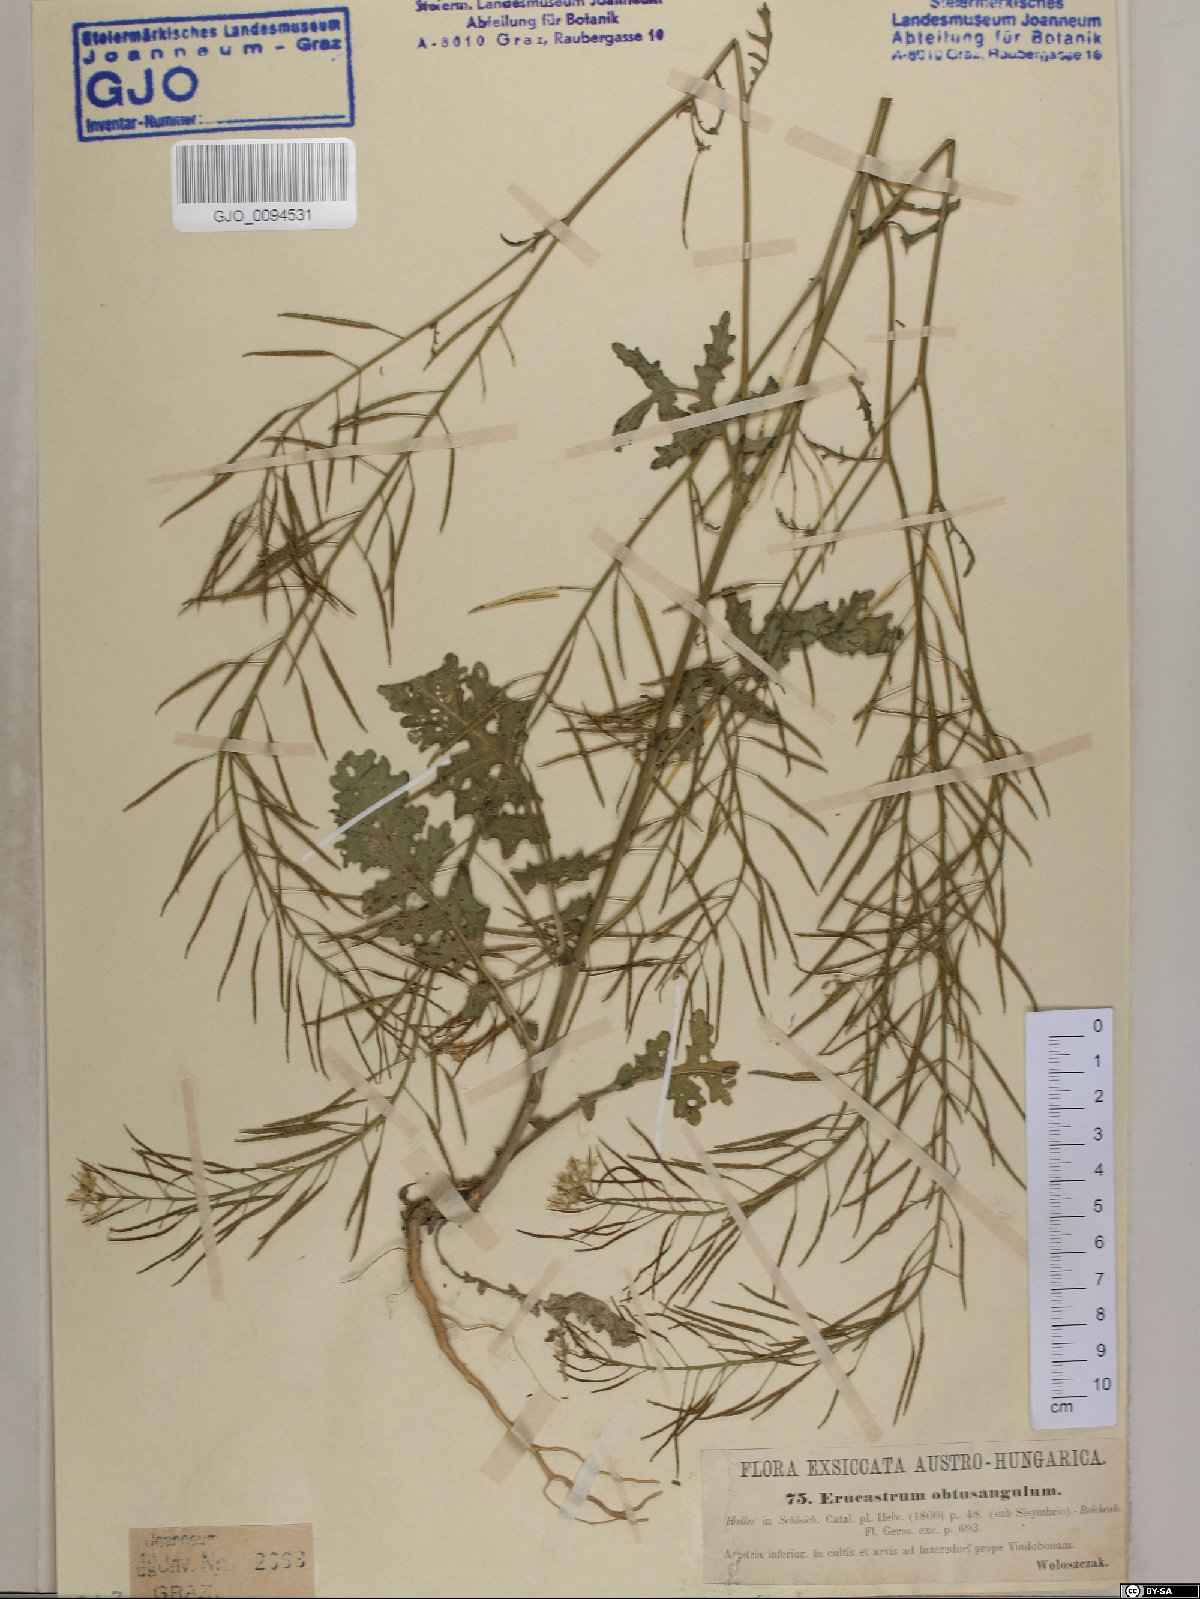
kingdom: Plantae
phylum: Tracheophyta
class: Magnoliopsida
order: Brassicales
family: Brassicaceae
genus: Erucastrum
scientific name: Erucastrum nasturtiifolium
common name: Watercress-leaf rocket
